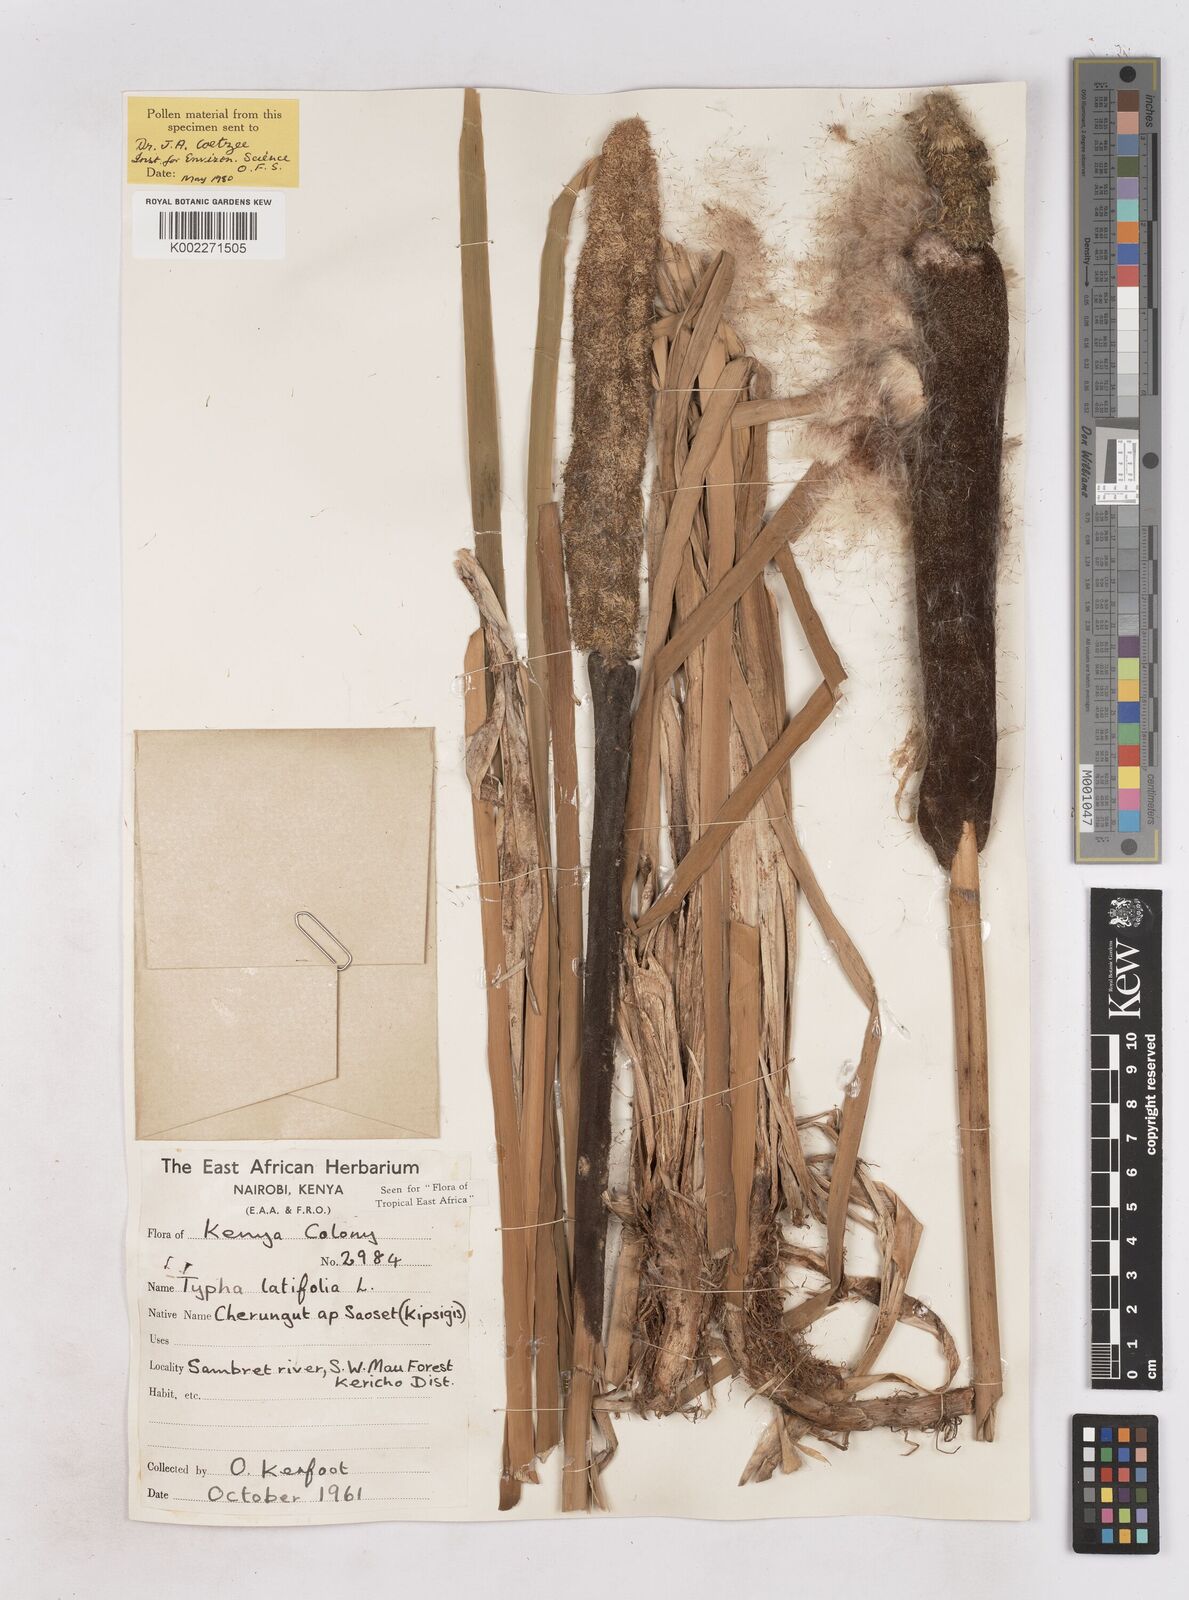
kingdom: Plantae
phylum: Tracheophyta
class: Liliopsida
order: Poales
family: Typhaceae
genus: Typha
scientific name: Typha latifolia
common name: Broadleaf cattail
